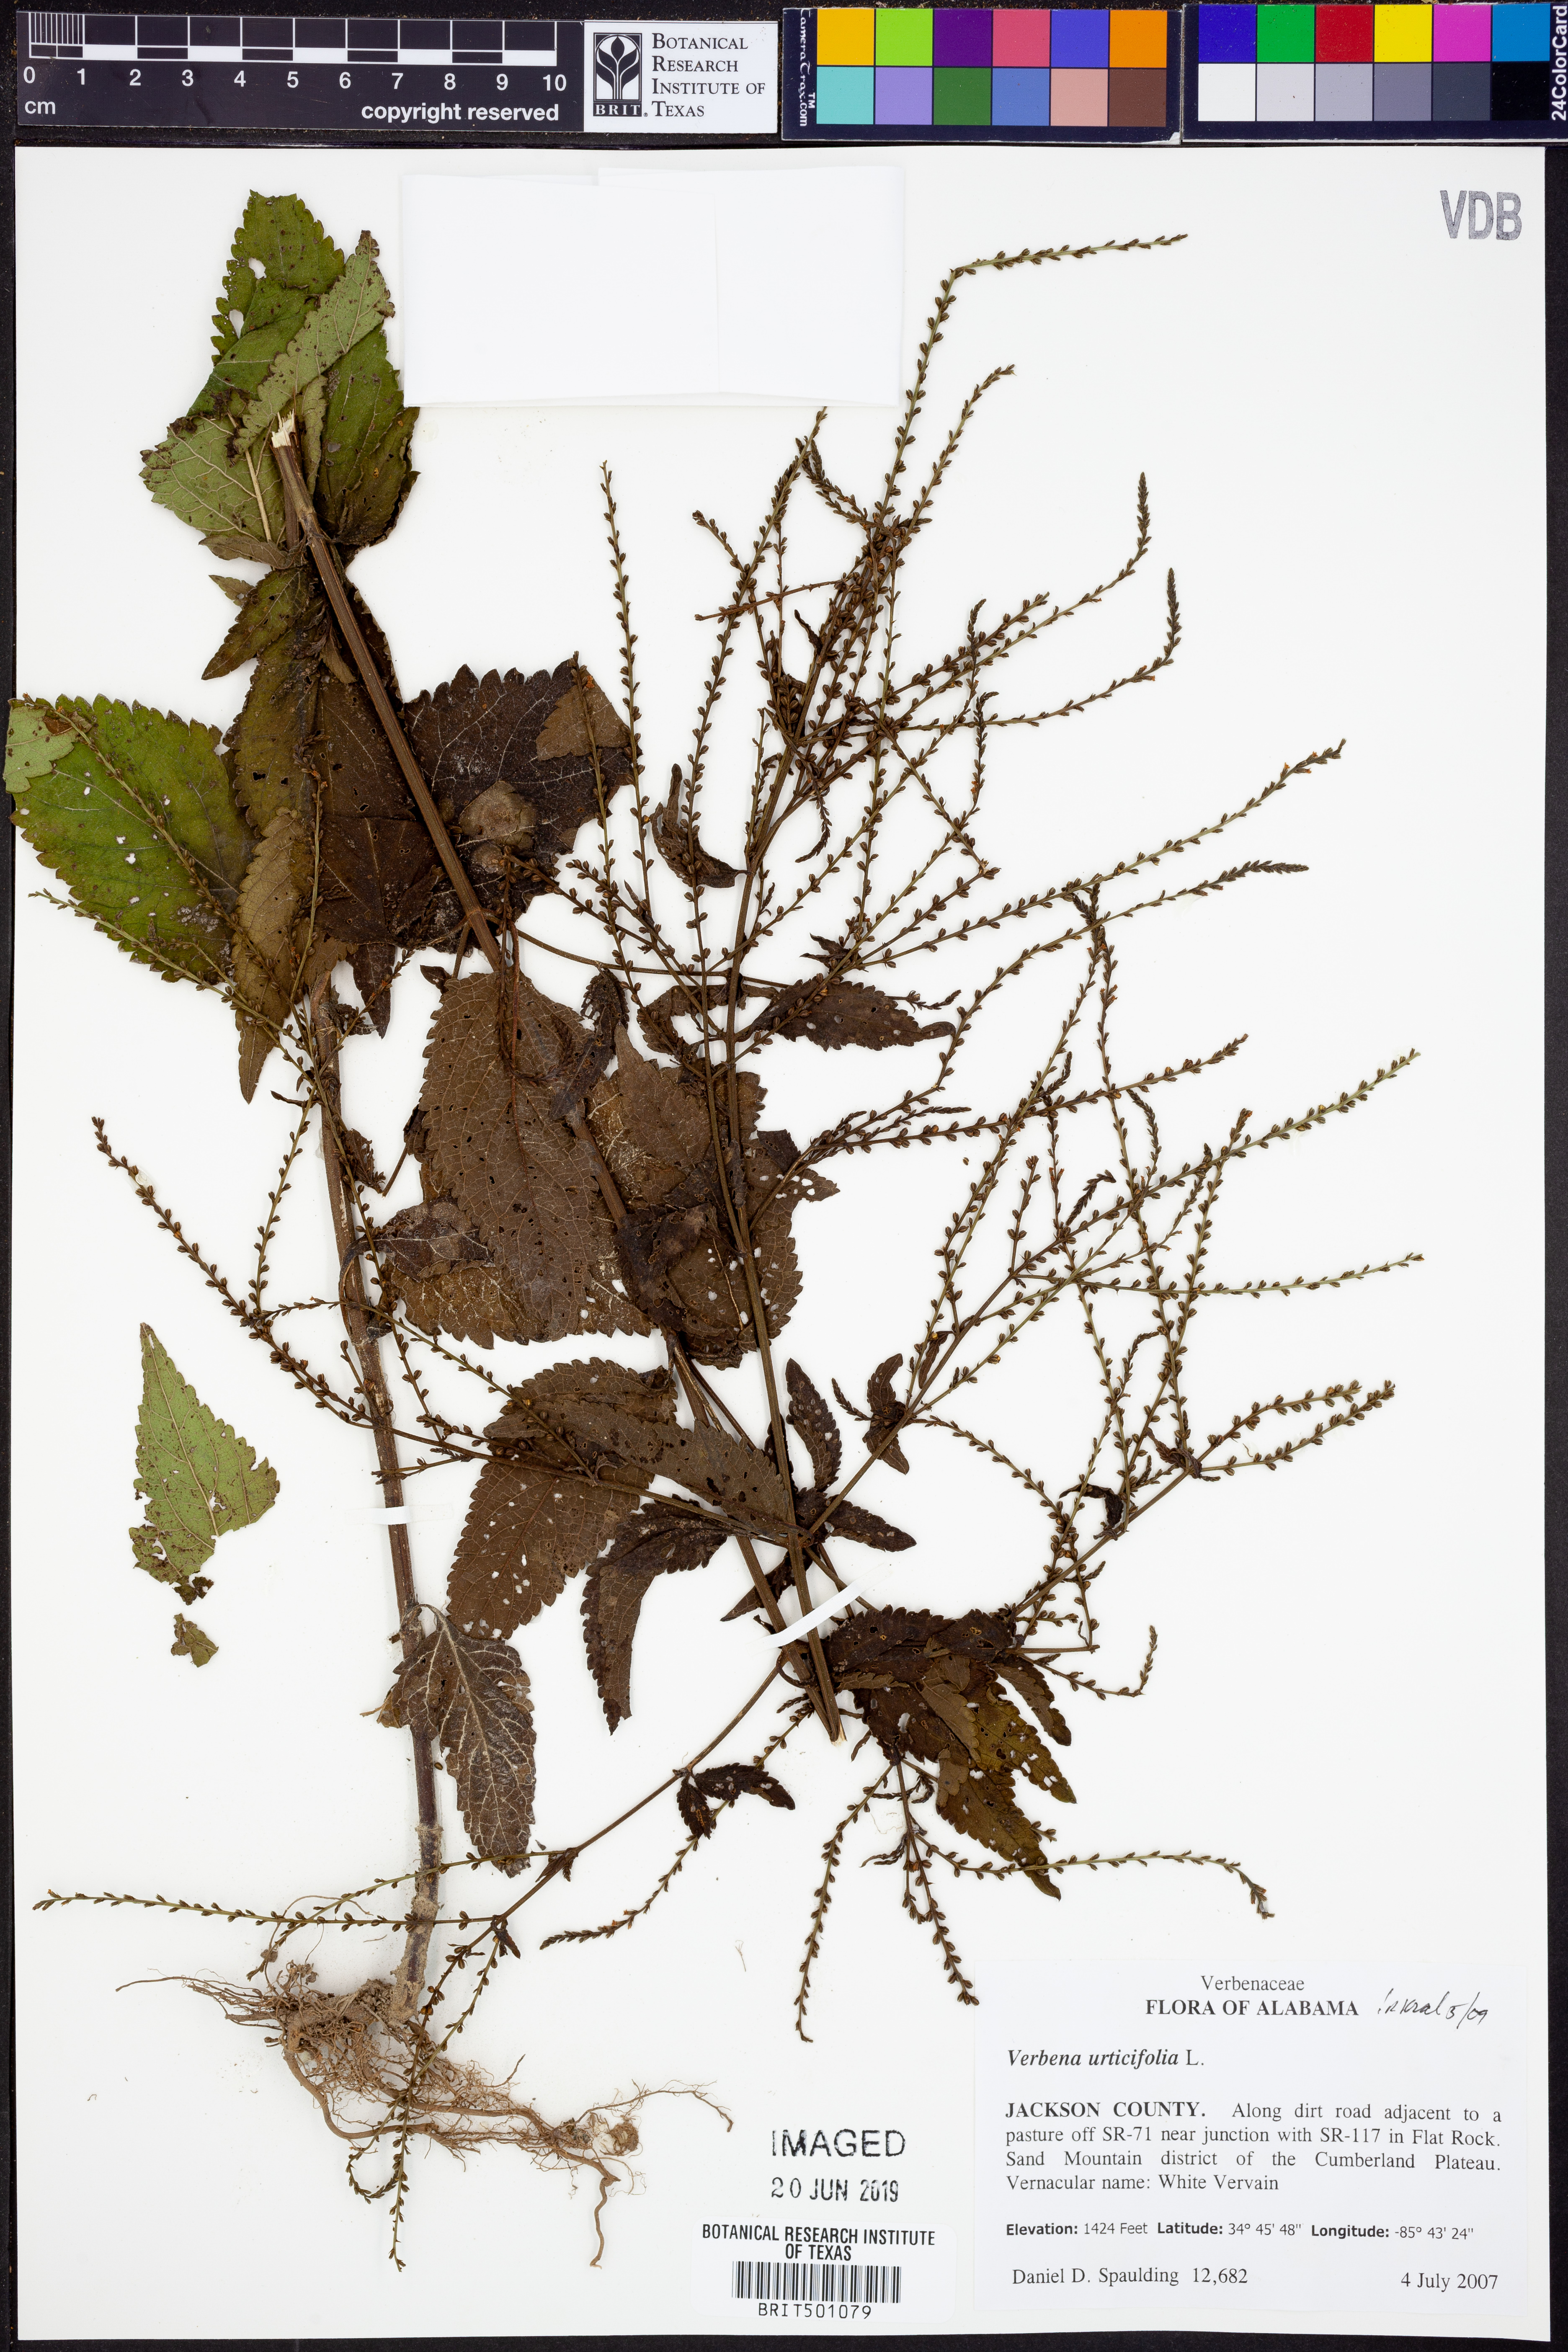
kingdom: Plantae
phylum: Tracheophyta
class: Magnoliopsida
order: Lamiales
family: Verbenaceae
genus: Verbena
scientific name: Verbena urticifolia
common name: Nettle-leaved vervain
